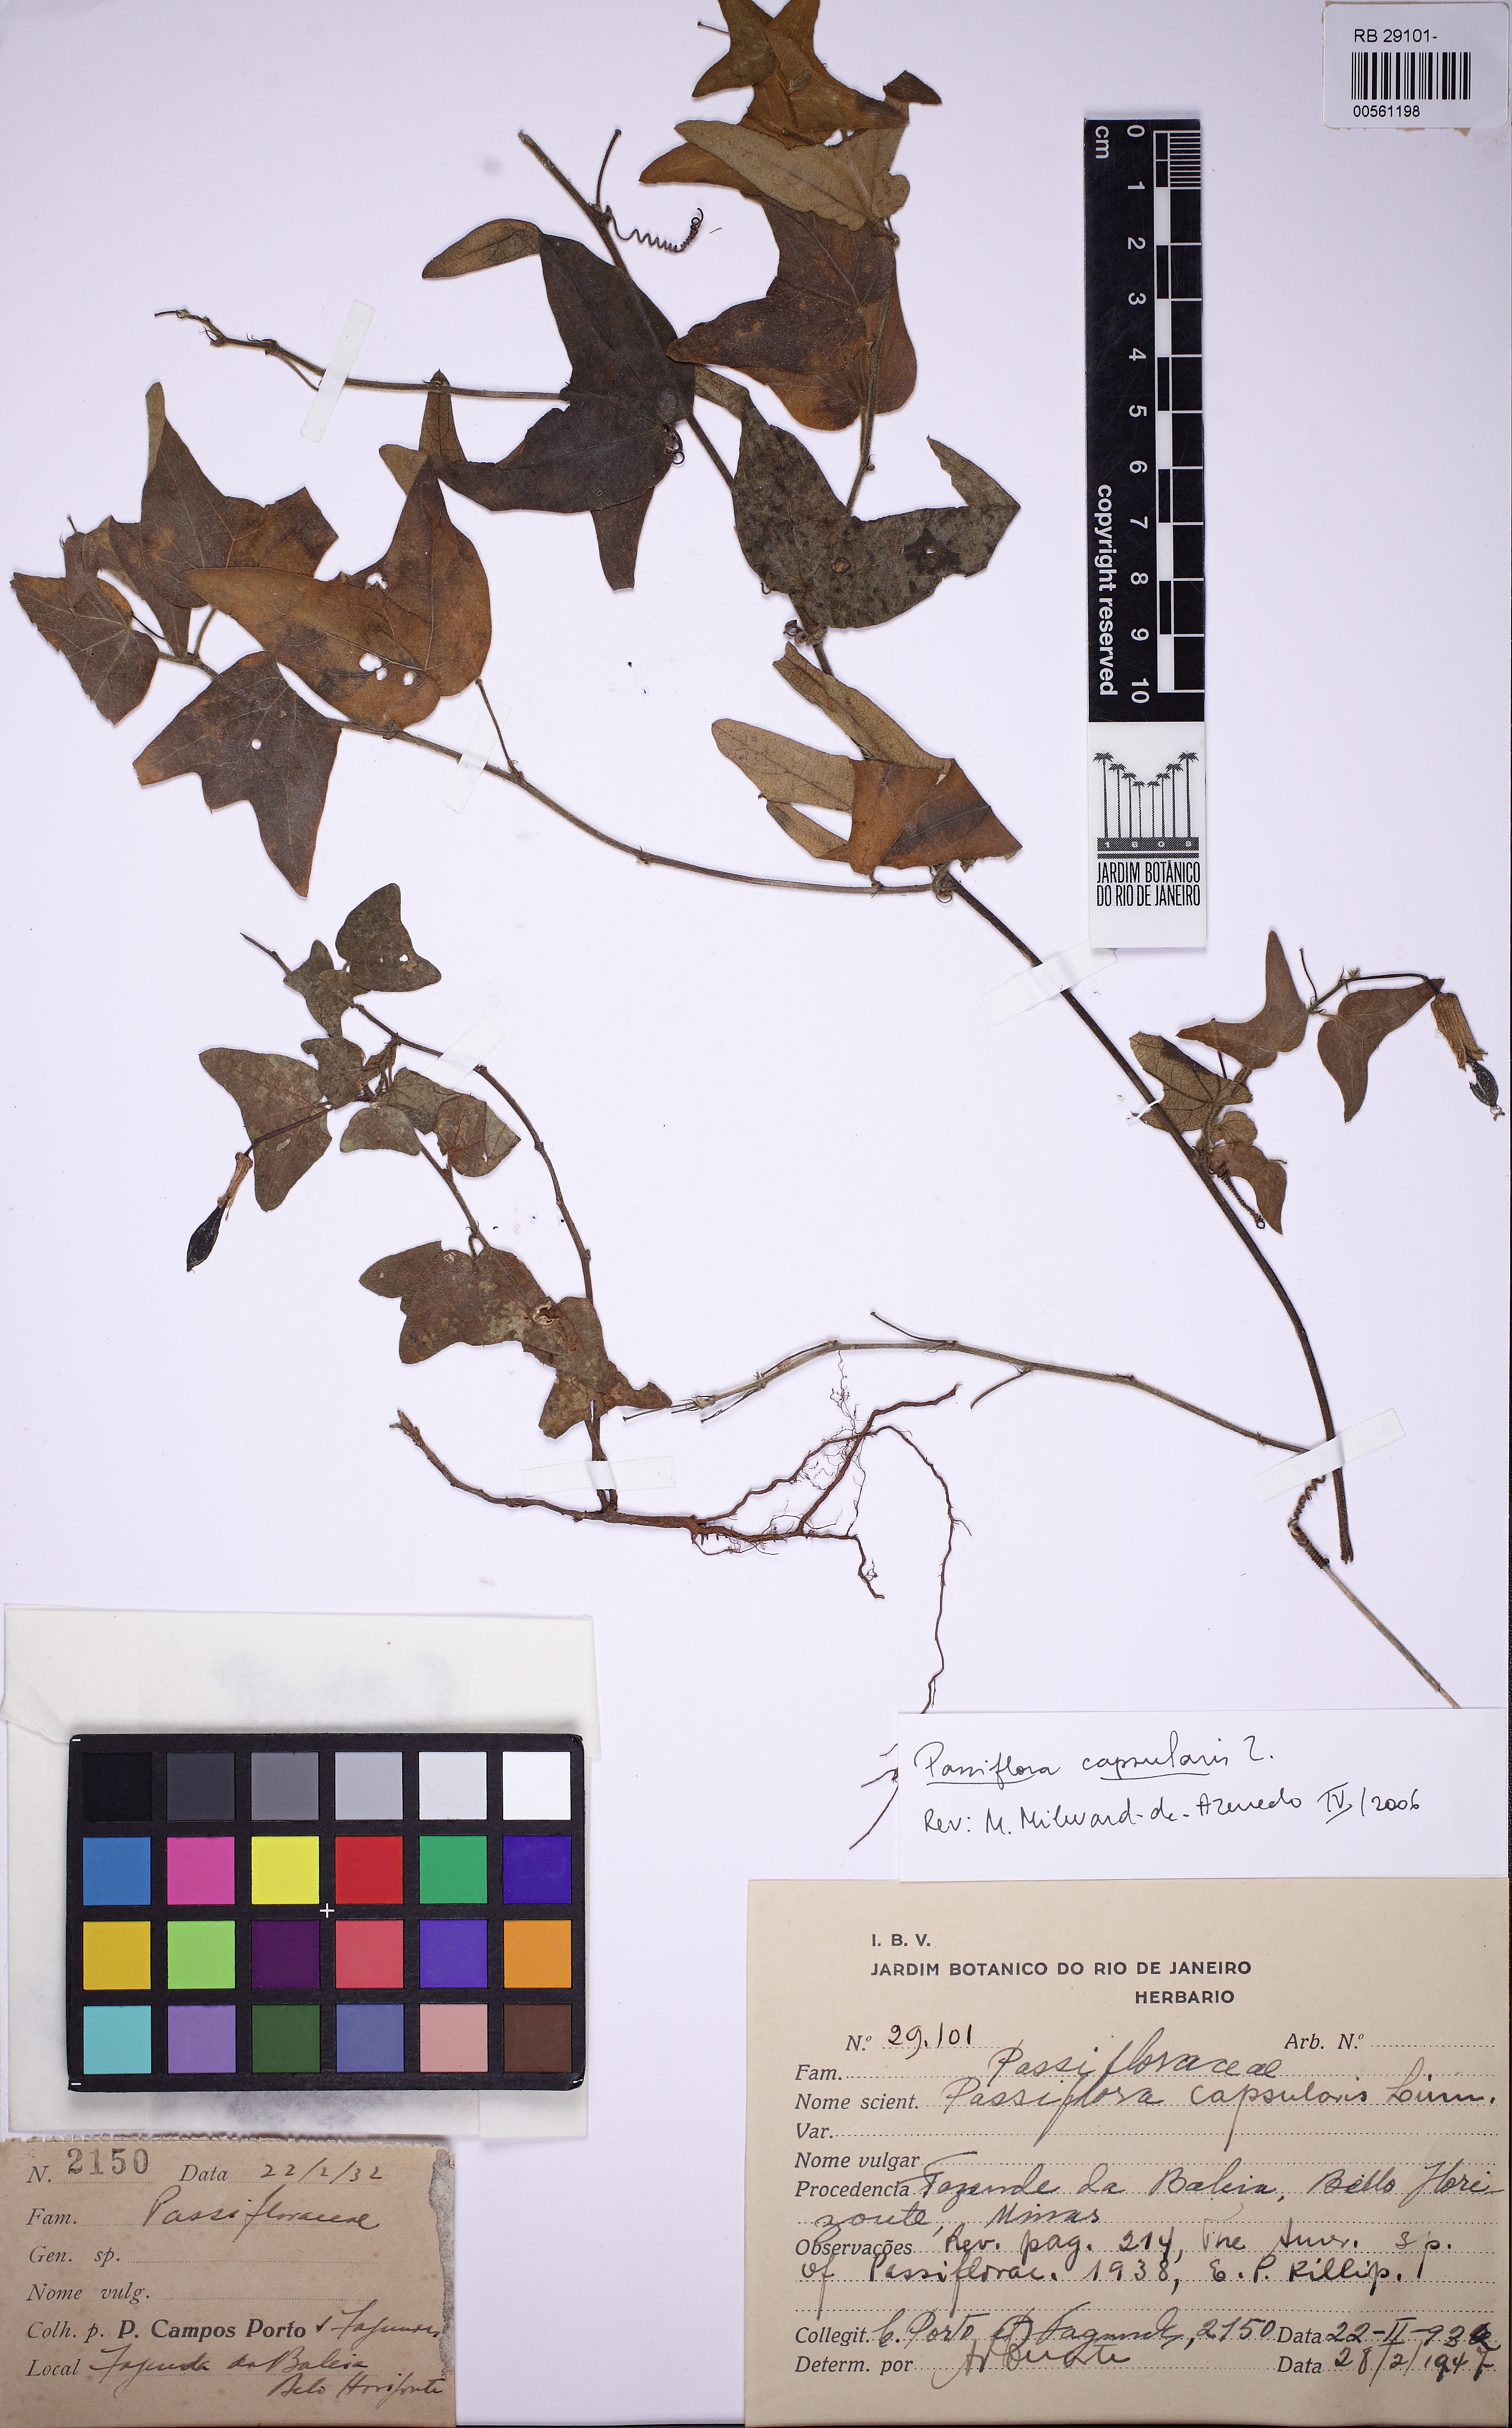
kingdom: Plantae
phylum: Tracheophyta
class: Magnoliopsida
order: Malpighiales
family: Passifloraceae
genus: Passiflora
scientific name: Passiflora capsularis
